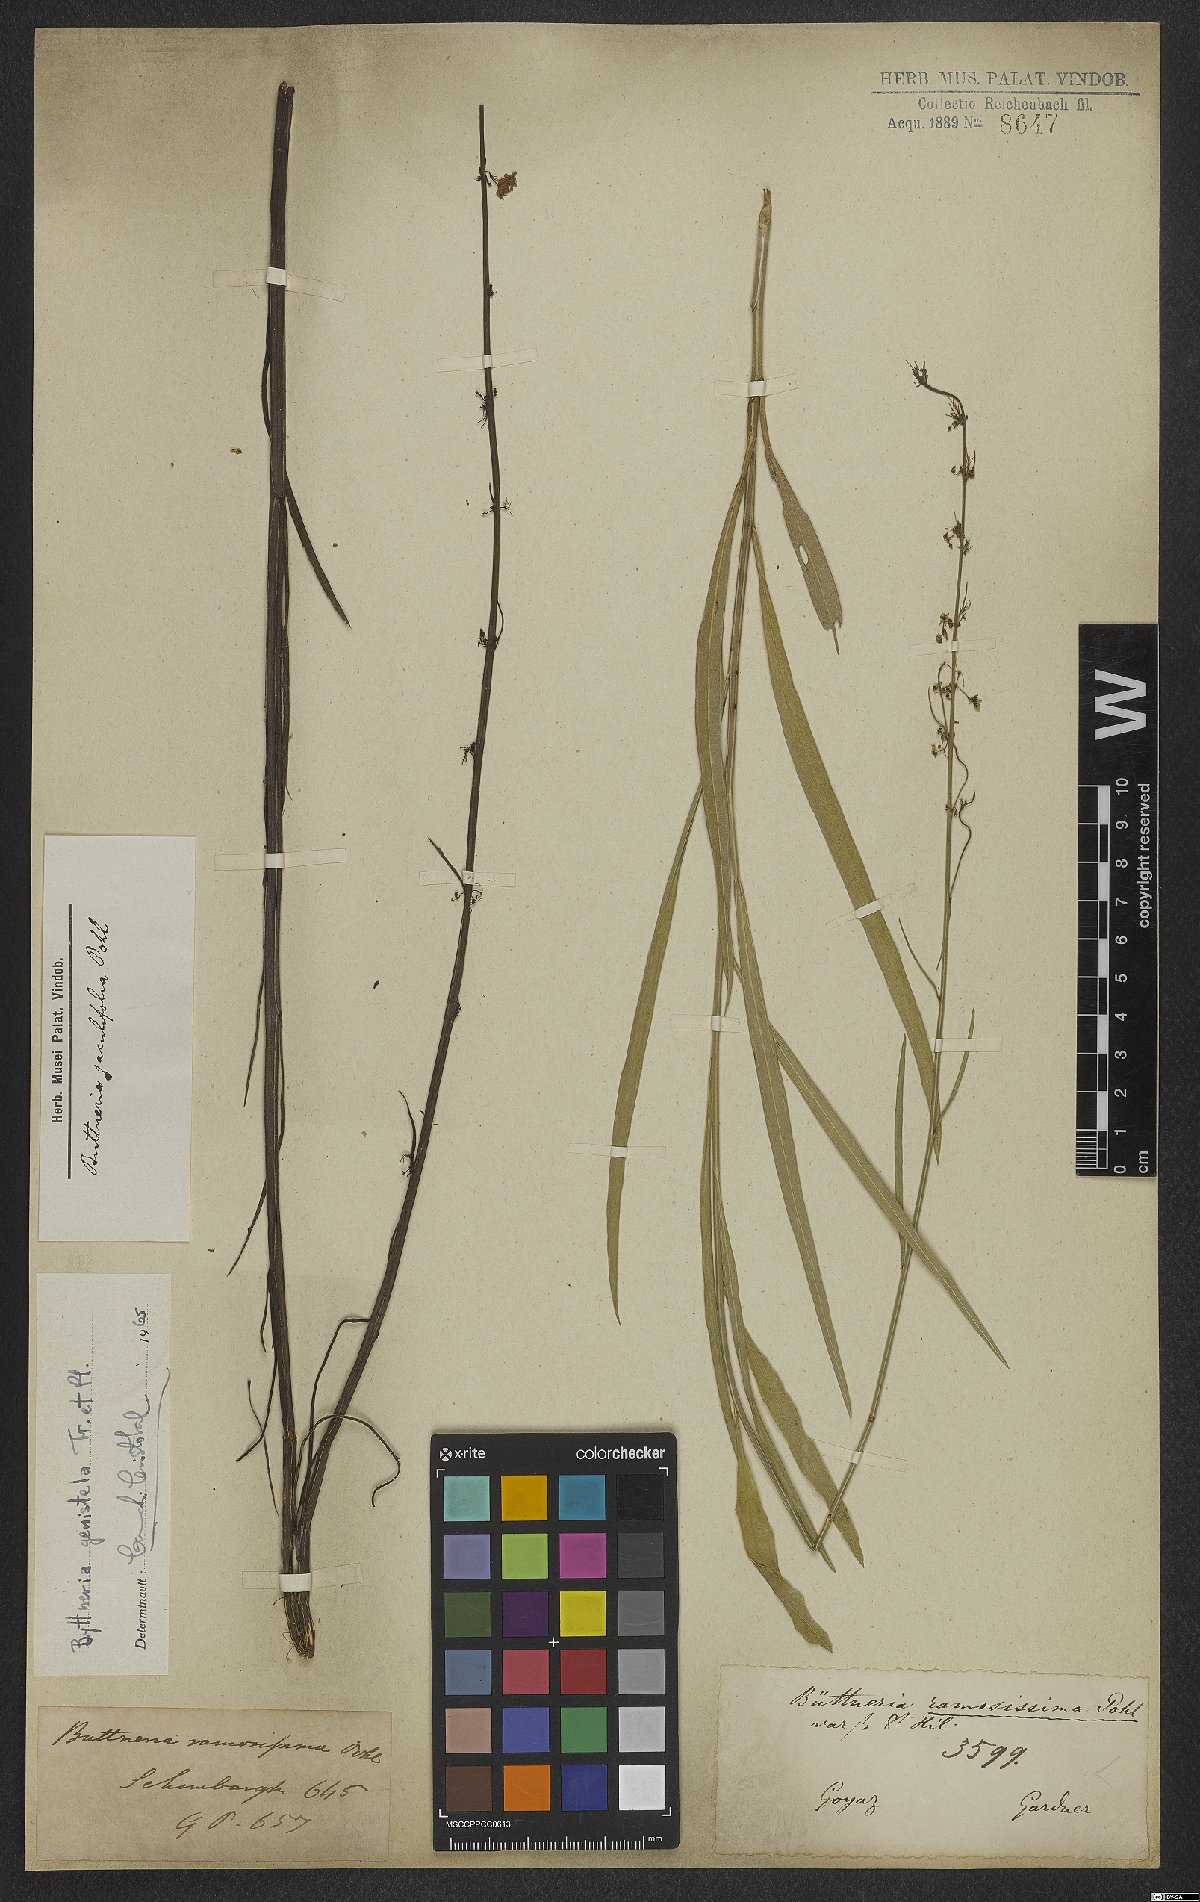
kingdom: Plantae
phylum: Tracheophyta
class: Magnoliopsida
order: Malvales
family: Malvaceae
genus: Byttneria
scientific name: Byttneria genistella
